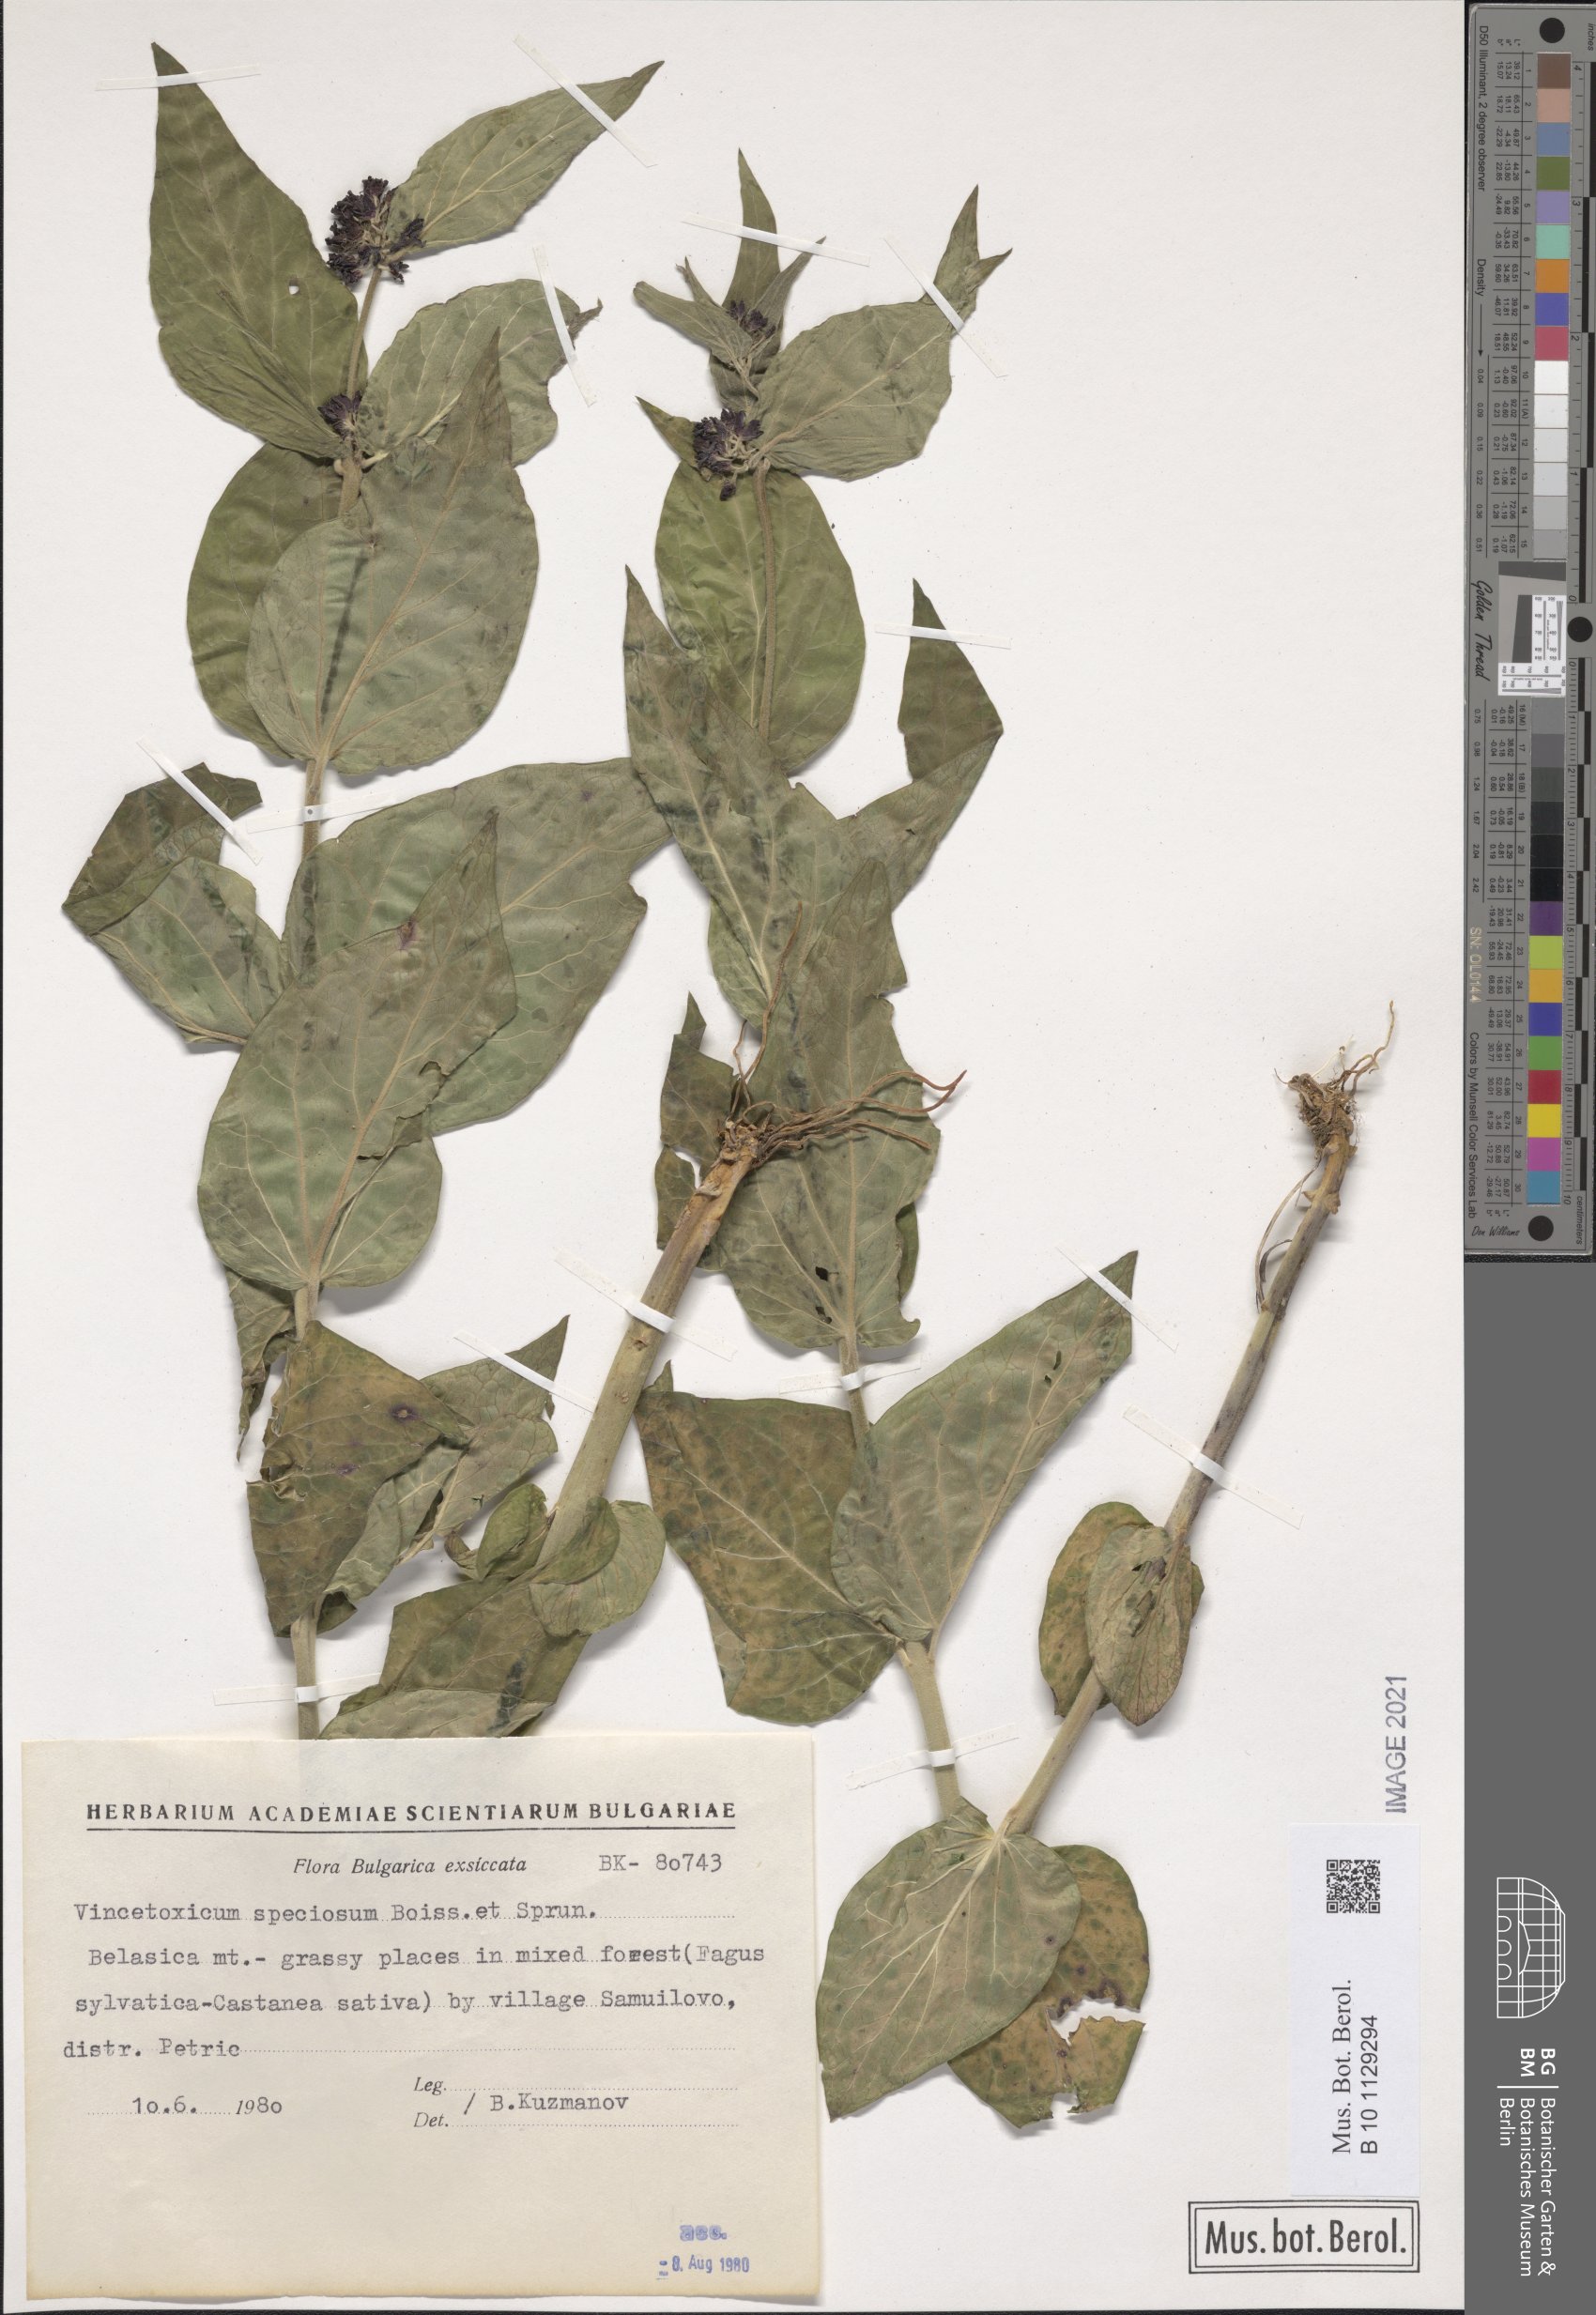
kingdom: Plantae
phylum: Tracheophyta
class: Magnoliopsida
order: Gentianales
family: Apocynaceae
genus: Vincetoxicum
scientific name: Vincetoxicum speciosum
